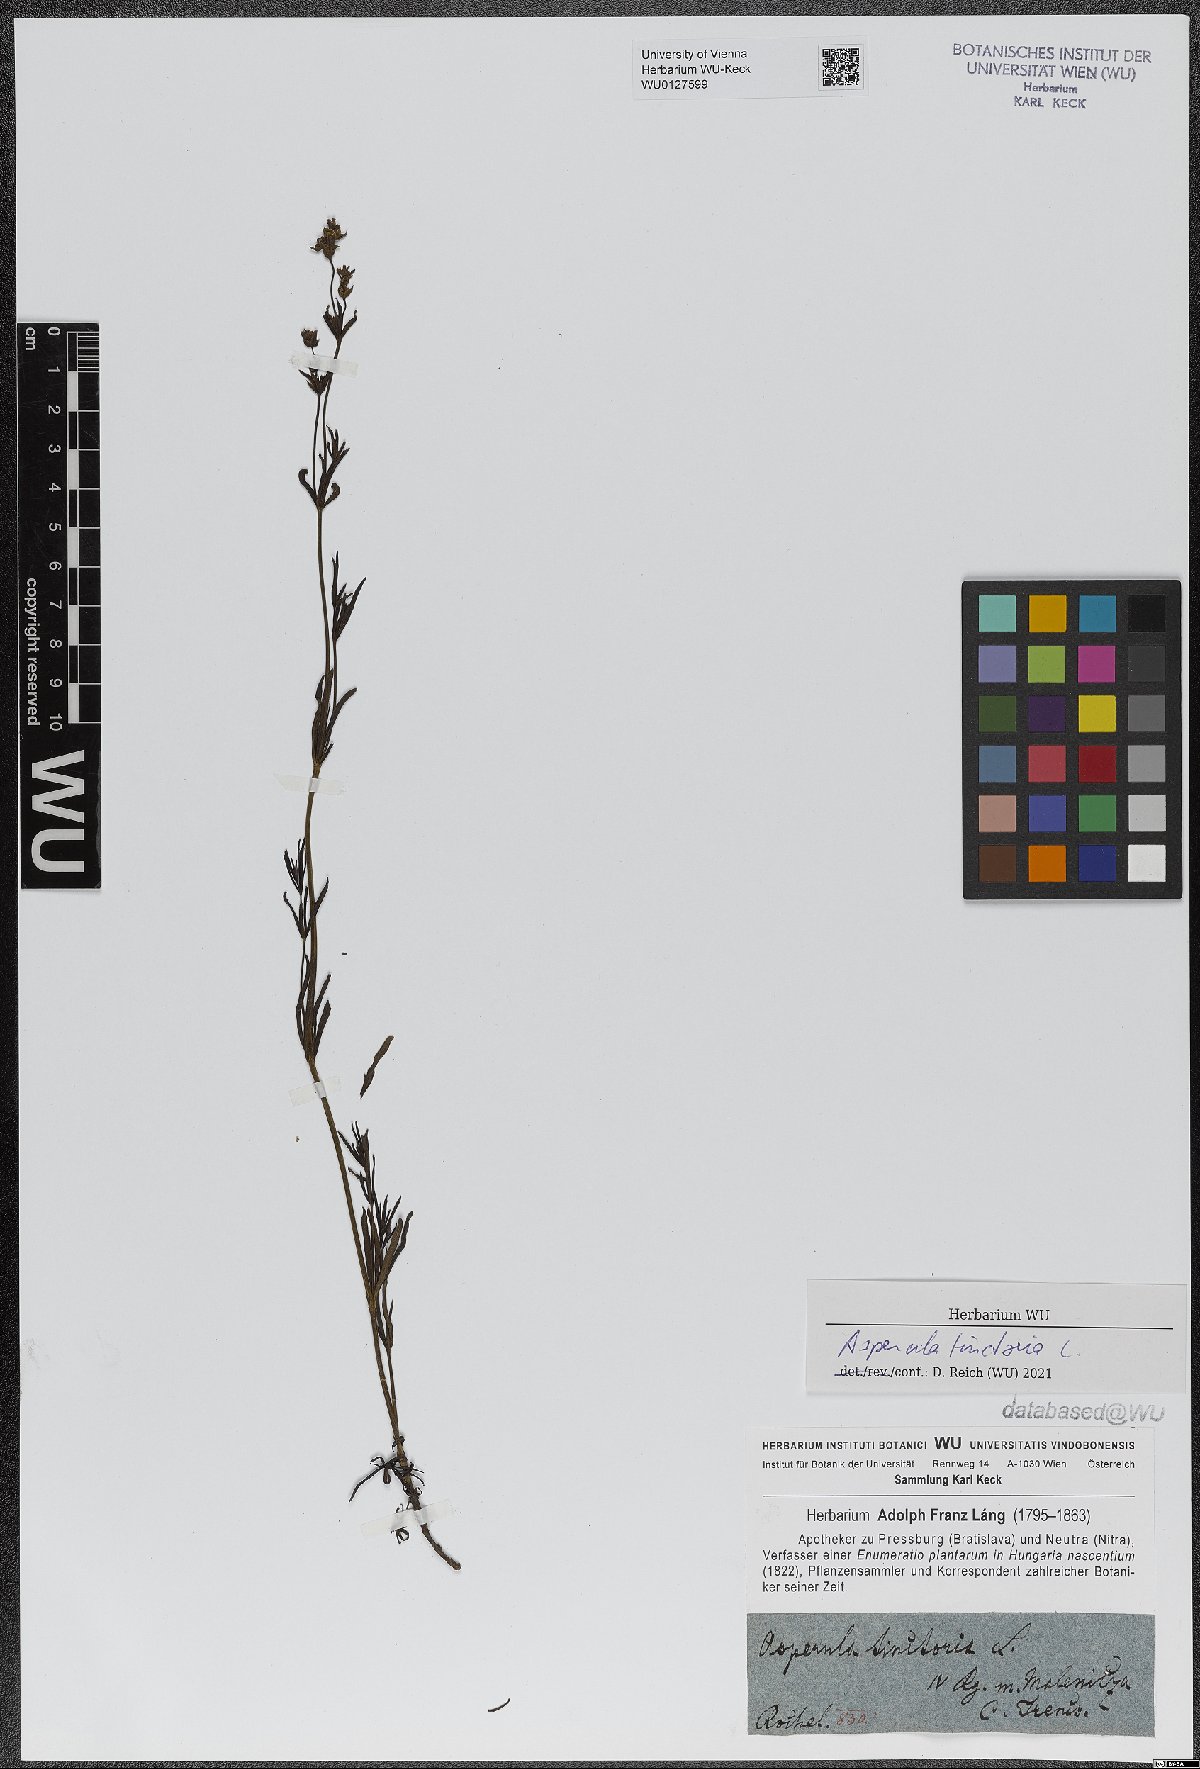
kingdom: Plantae
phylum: Tracheophyta
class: Magnoliopsida
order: Gentianales
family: Rubiaceae
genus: Asperula
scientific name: Asperula tinctoria
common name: Dyer's woodruff
